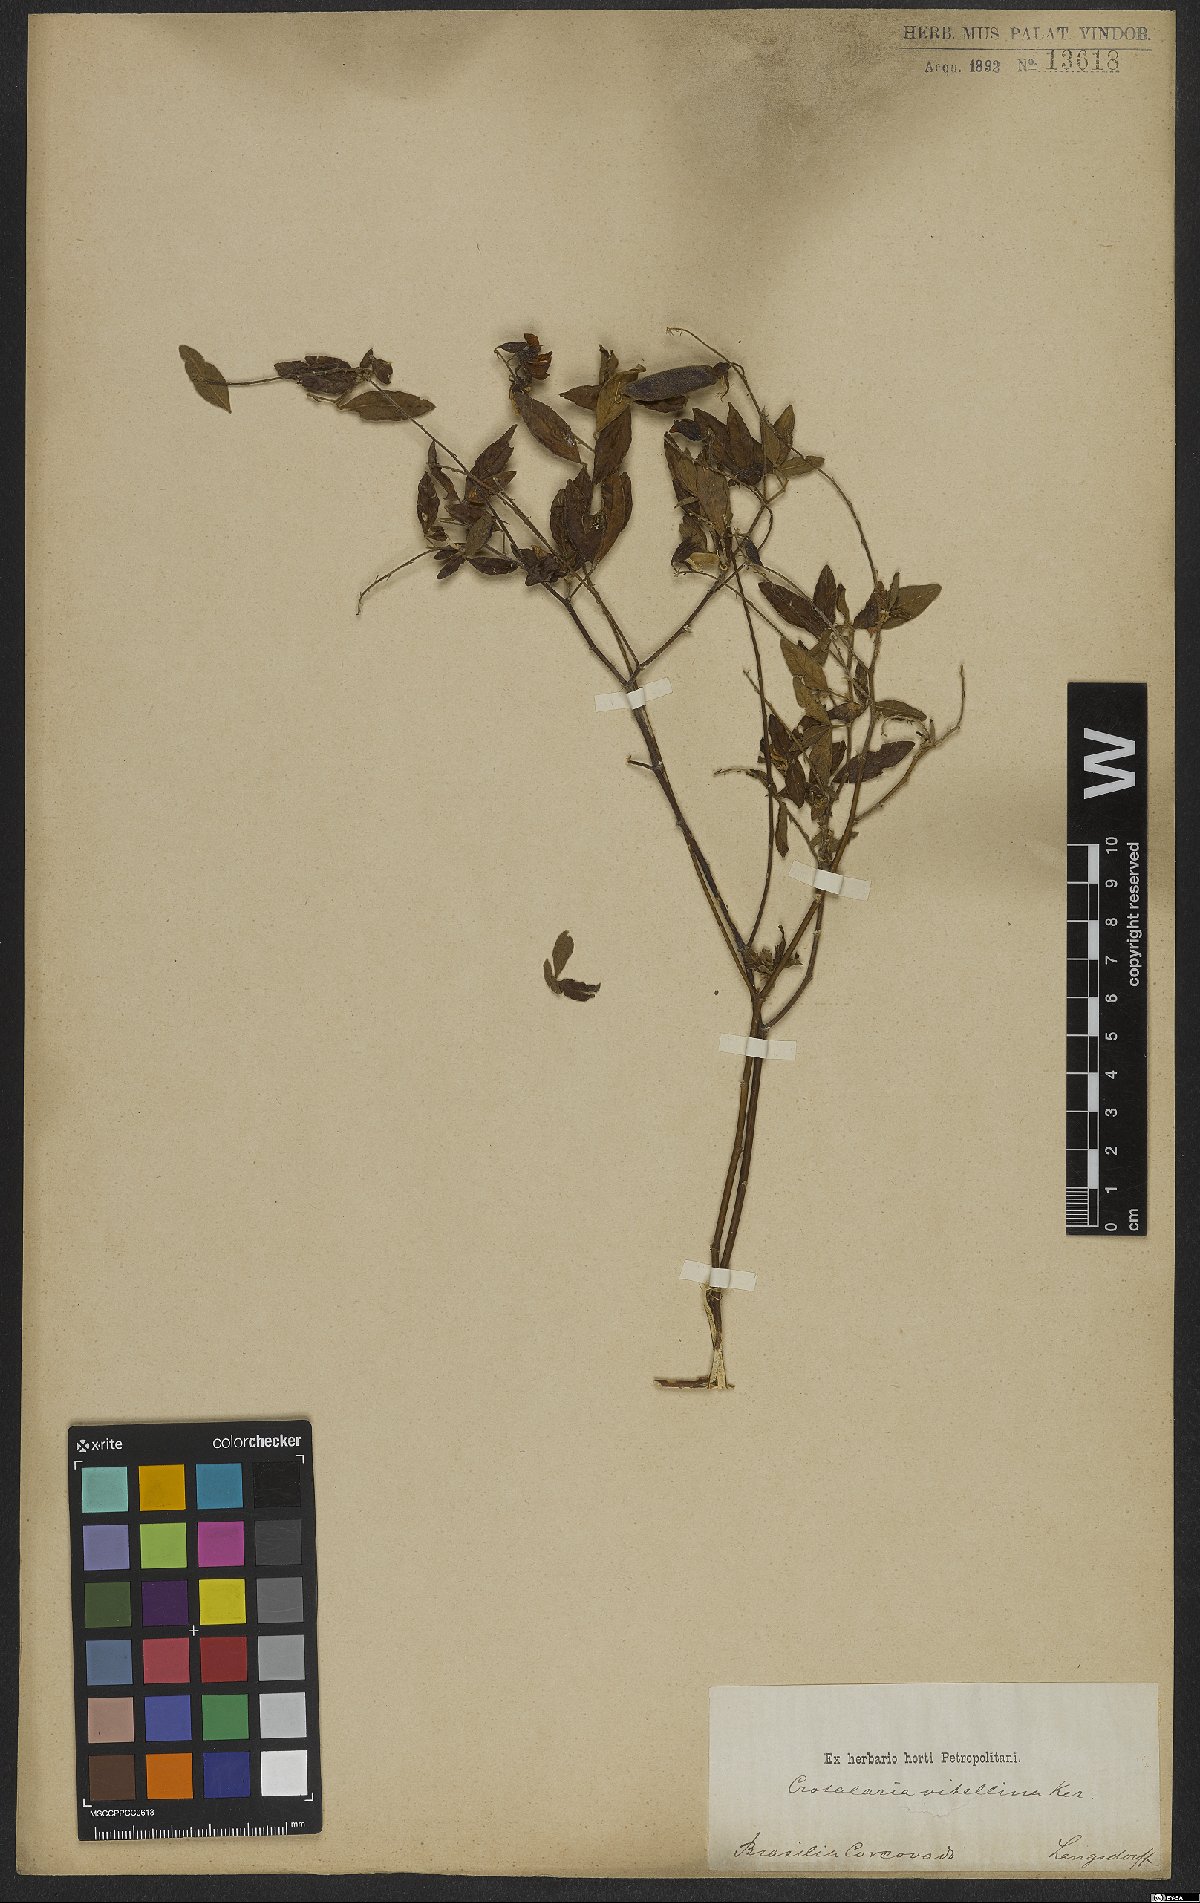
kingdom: Plantae
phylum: Tracheophyta
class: Magnoliopsida
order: Fabales
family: Fabaceae
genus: Crotalaria
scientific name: Crotalaria vitellina
